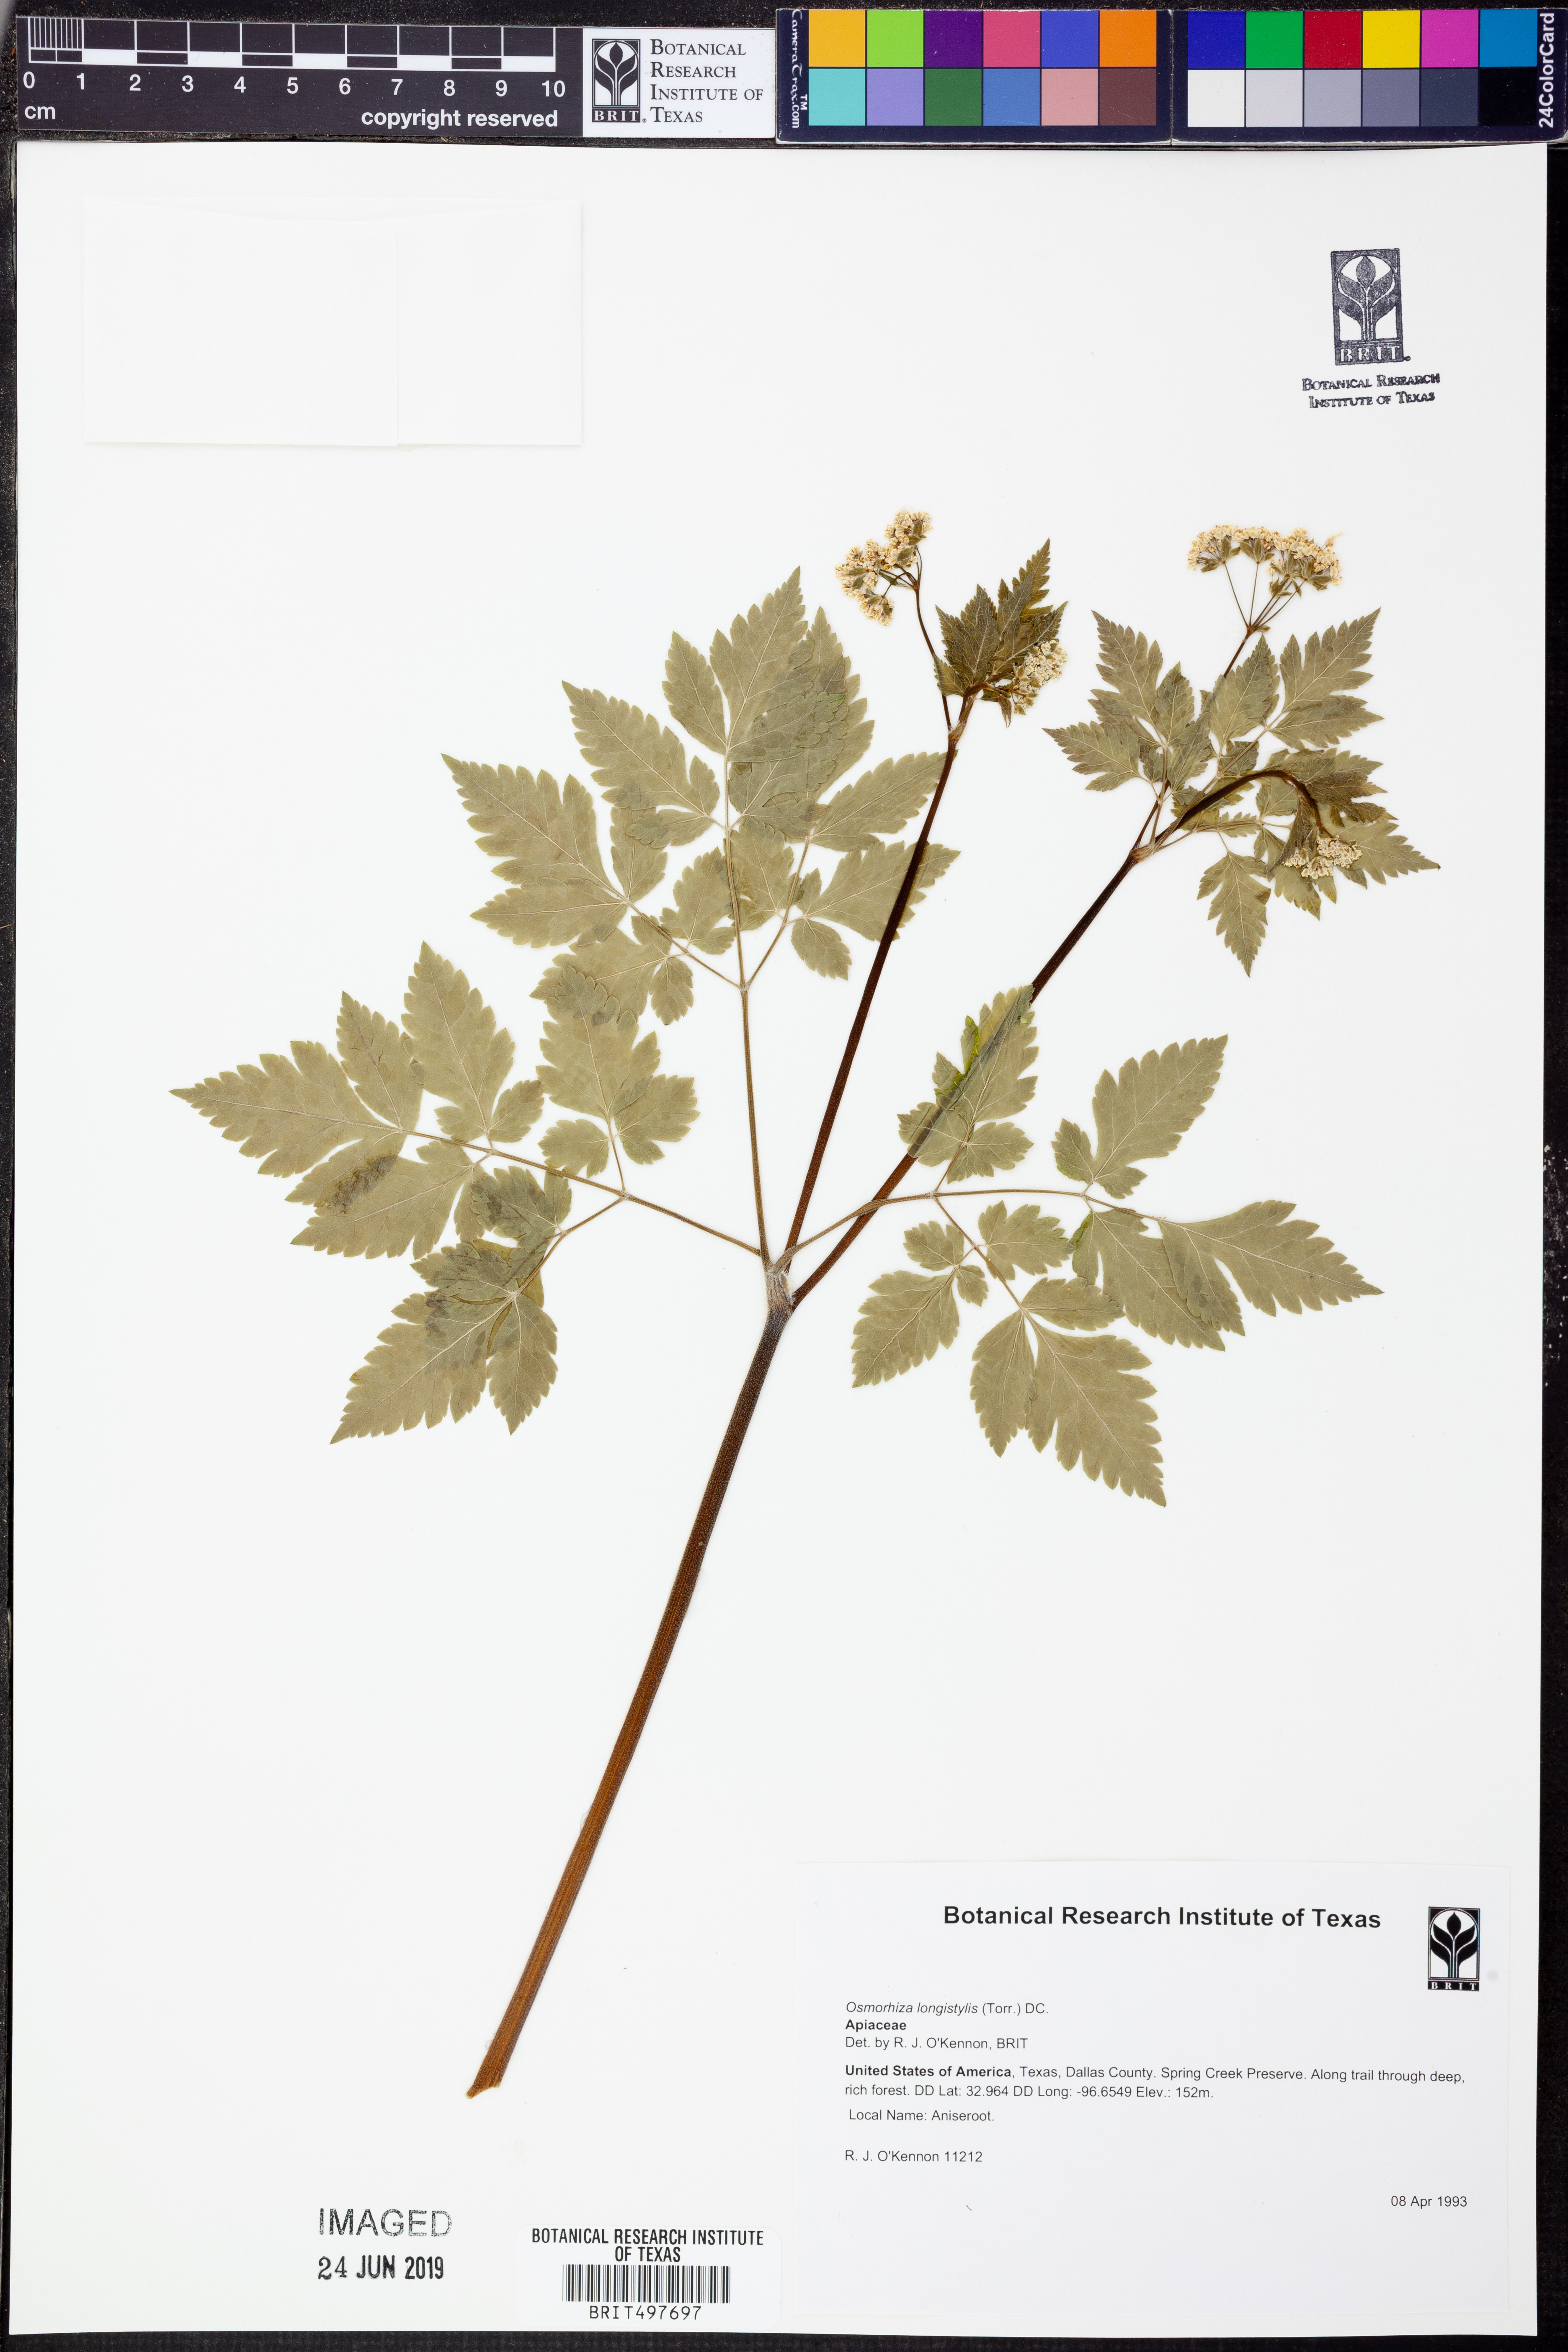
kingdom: Plantae
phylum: Tracheophyta
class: Magnoliopsida
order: Apiales
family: Apiaceae
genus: Osmorhiza
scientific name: Osmorhiza longistylis
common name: Smooth sweet cicely
